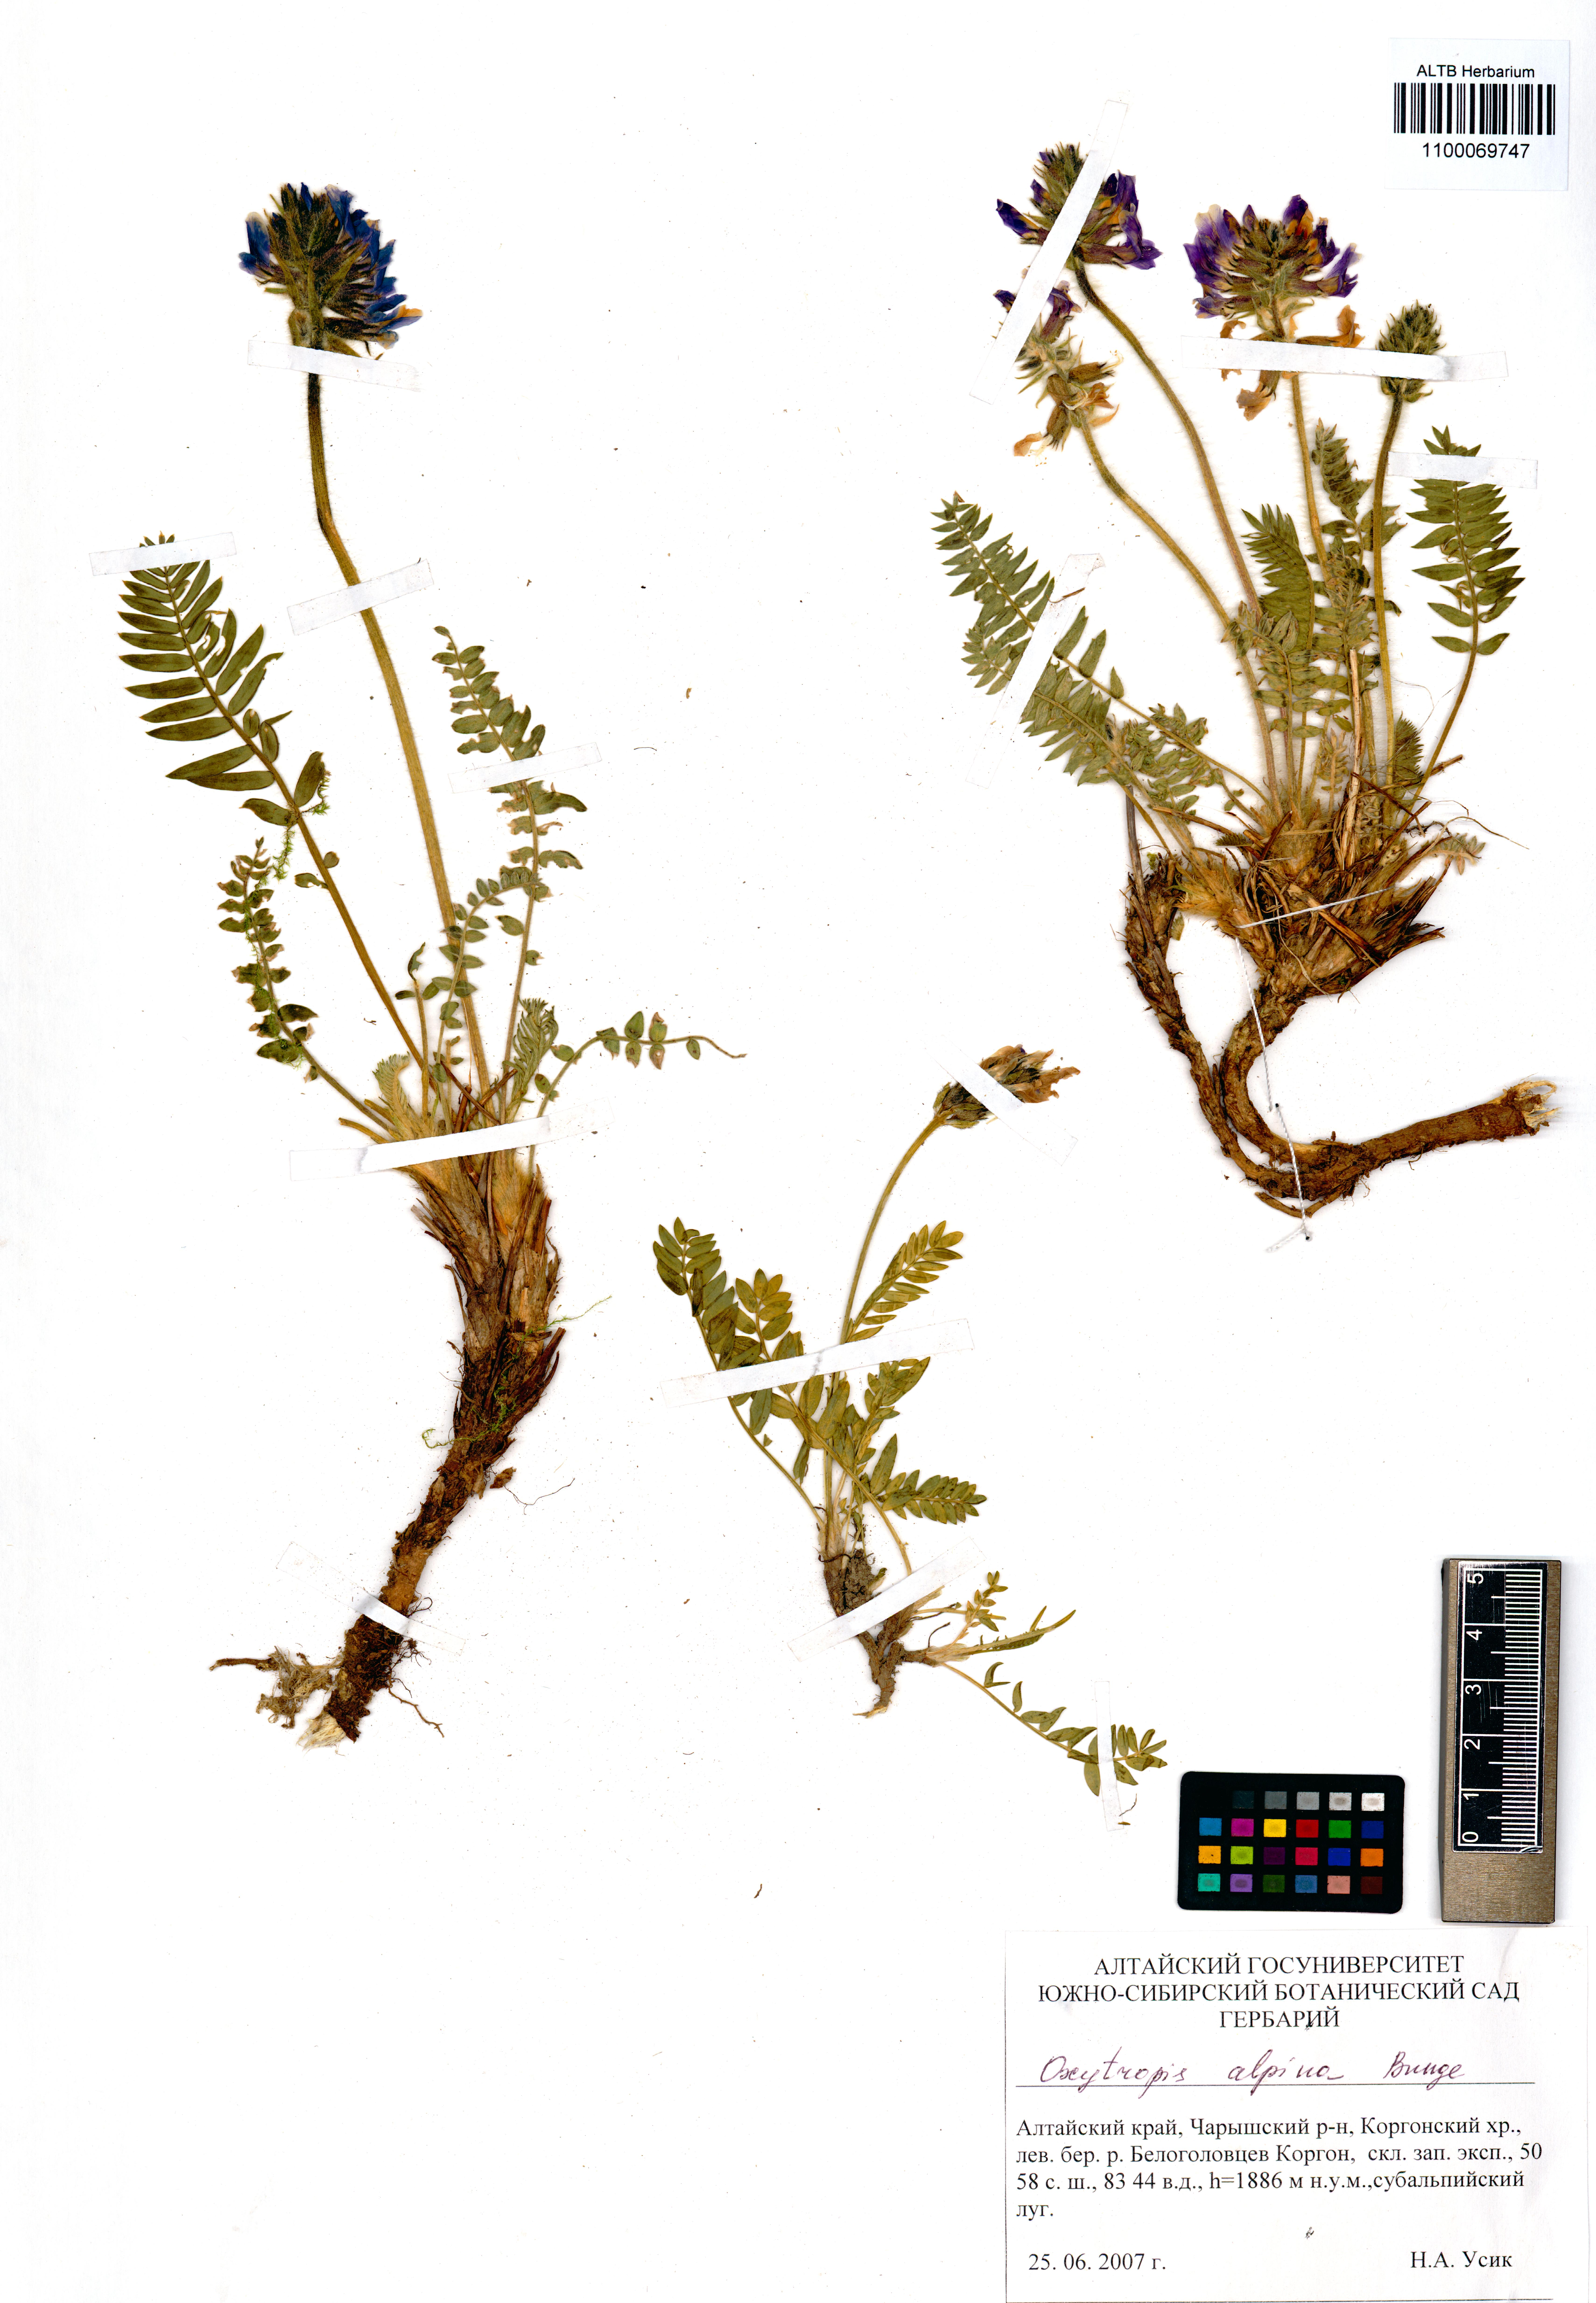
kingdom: Plantae
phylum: Tracheophyta
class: Magnoliopsida
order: Fabales
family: Fabaceae
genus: Oxytropis
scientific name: Oxytropis alpina
